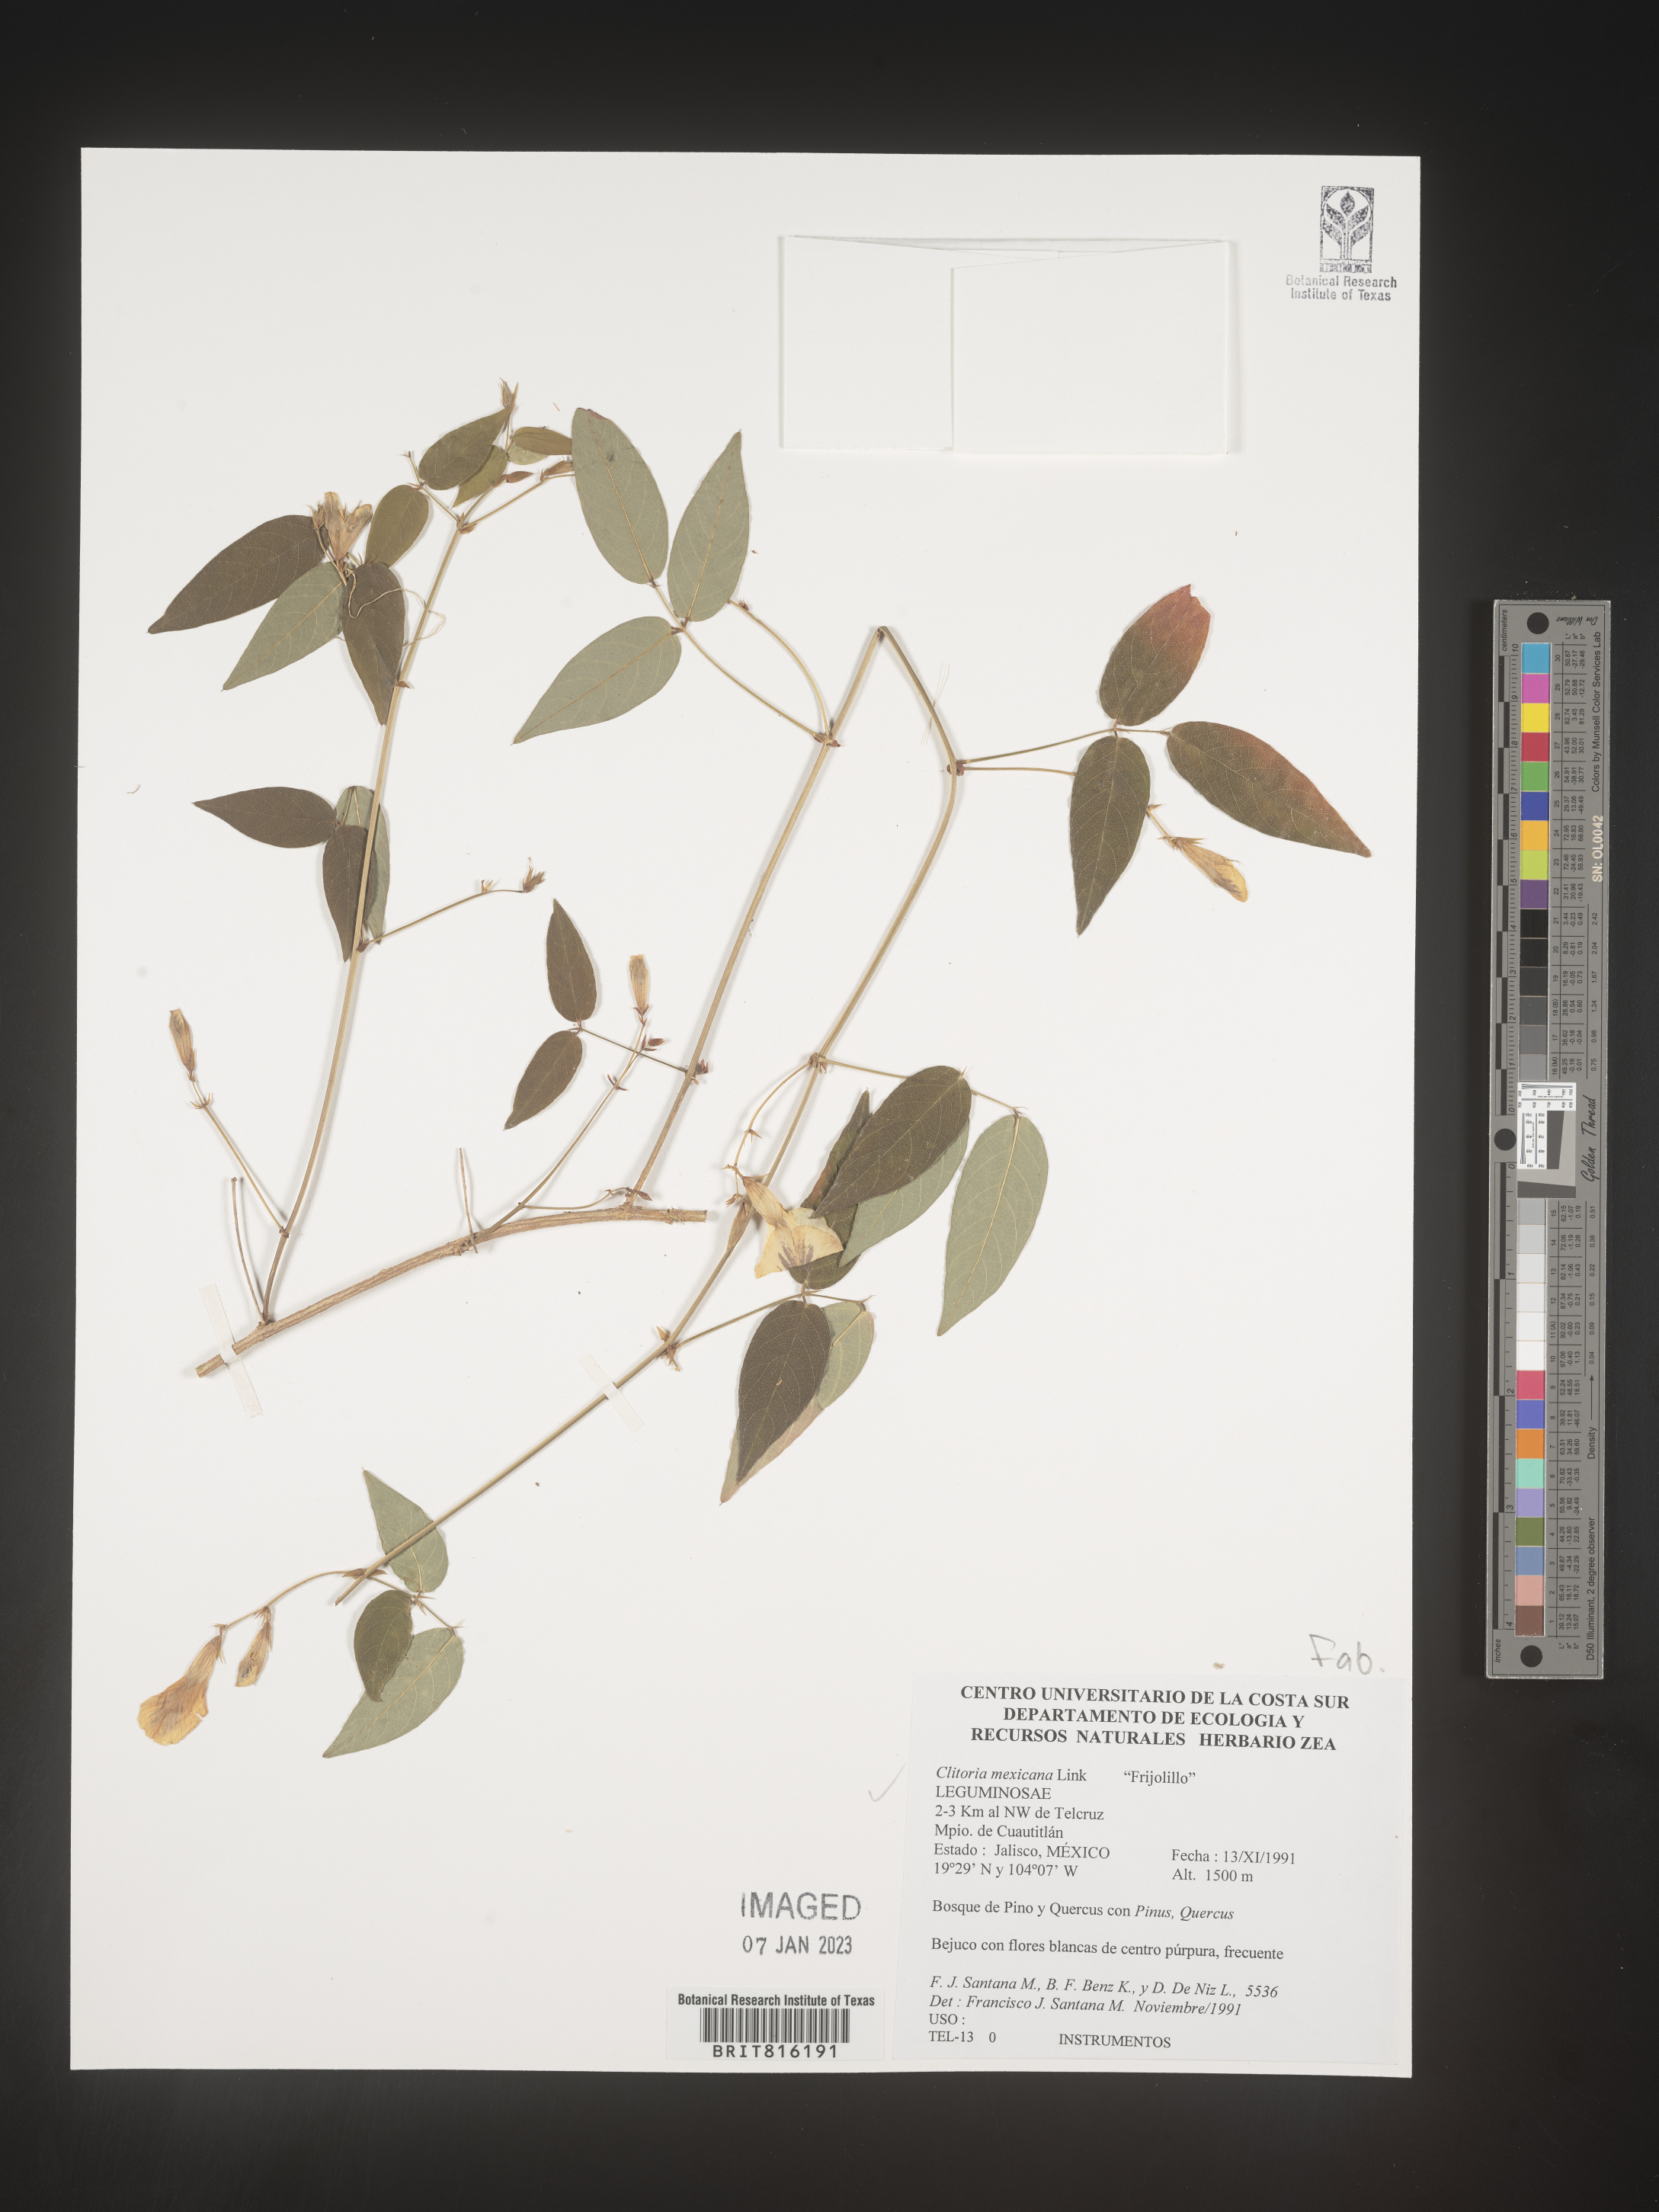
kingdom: Plantae
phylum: Tracheophyta
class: Magnoliopsida
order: Fabales
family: Fabaceae
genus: Clitoria
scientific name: Clitoria
